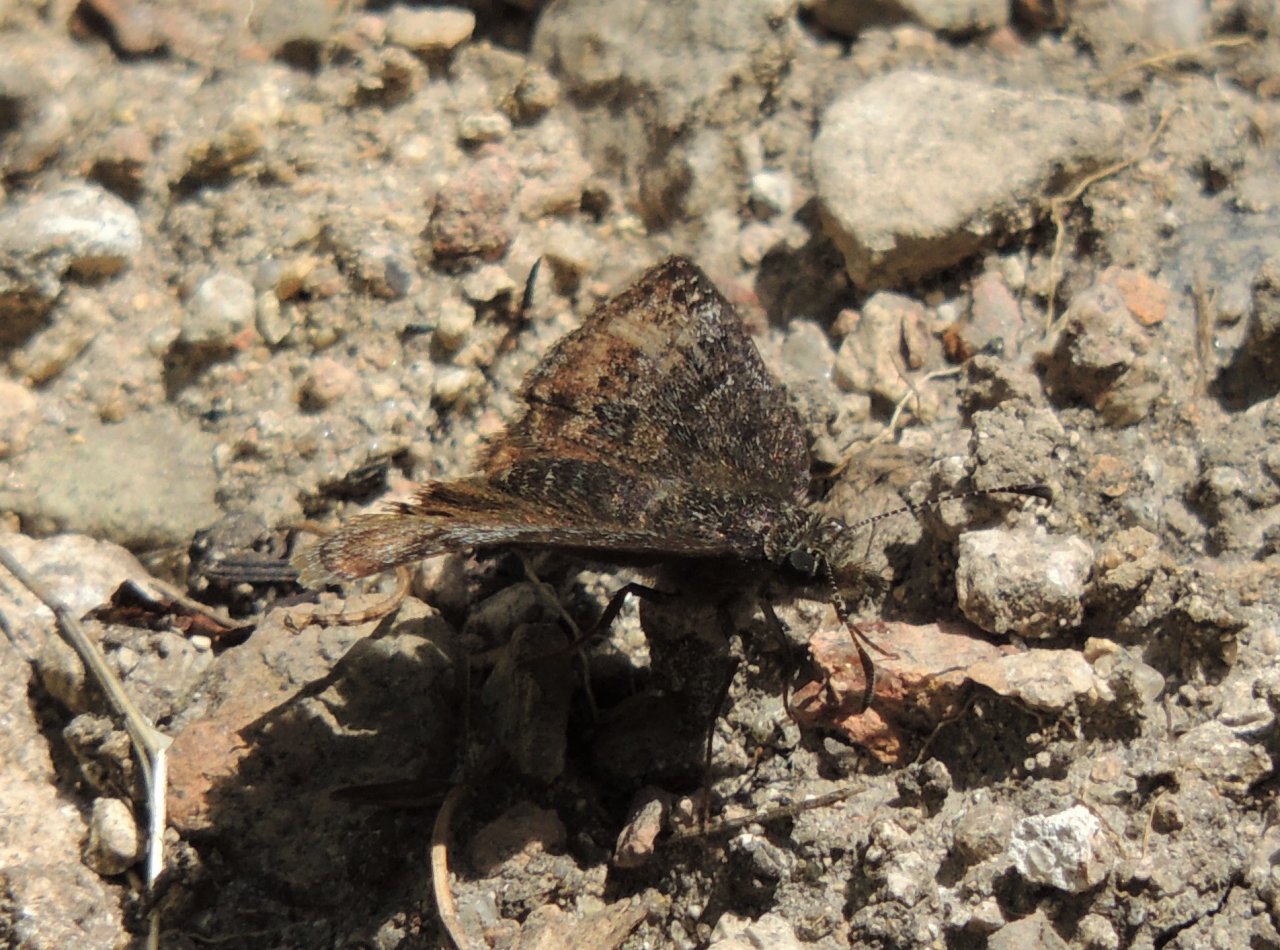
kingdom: Animalia
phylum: Arthropoda
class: Insecta
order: Lepidoptera
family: Hesperiidae
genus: Gesta
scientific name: Gesta
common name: Persius Duskywing
